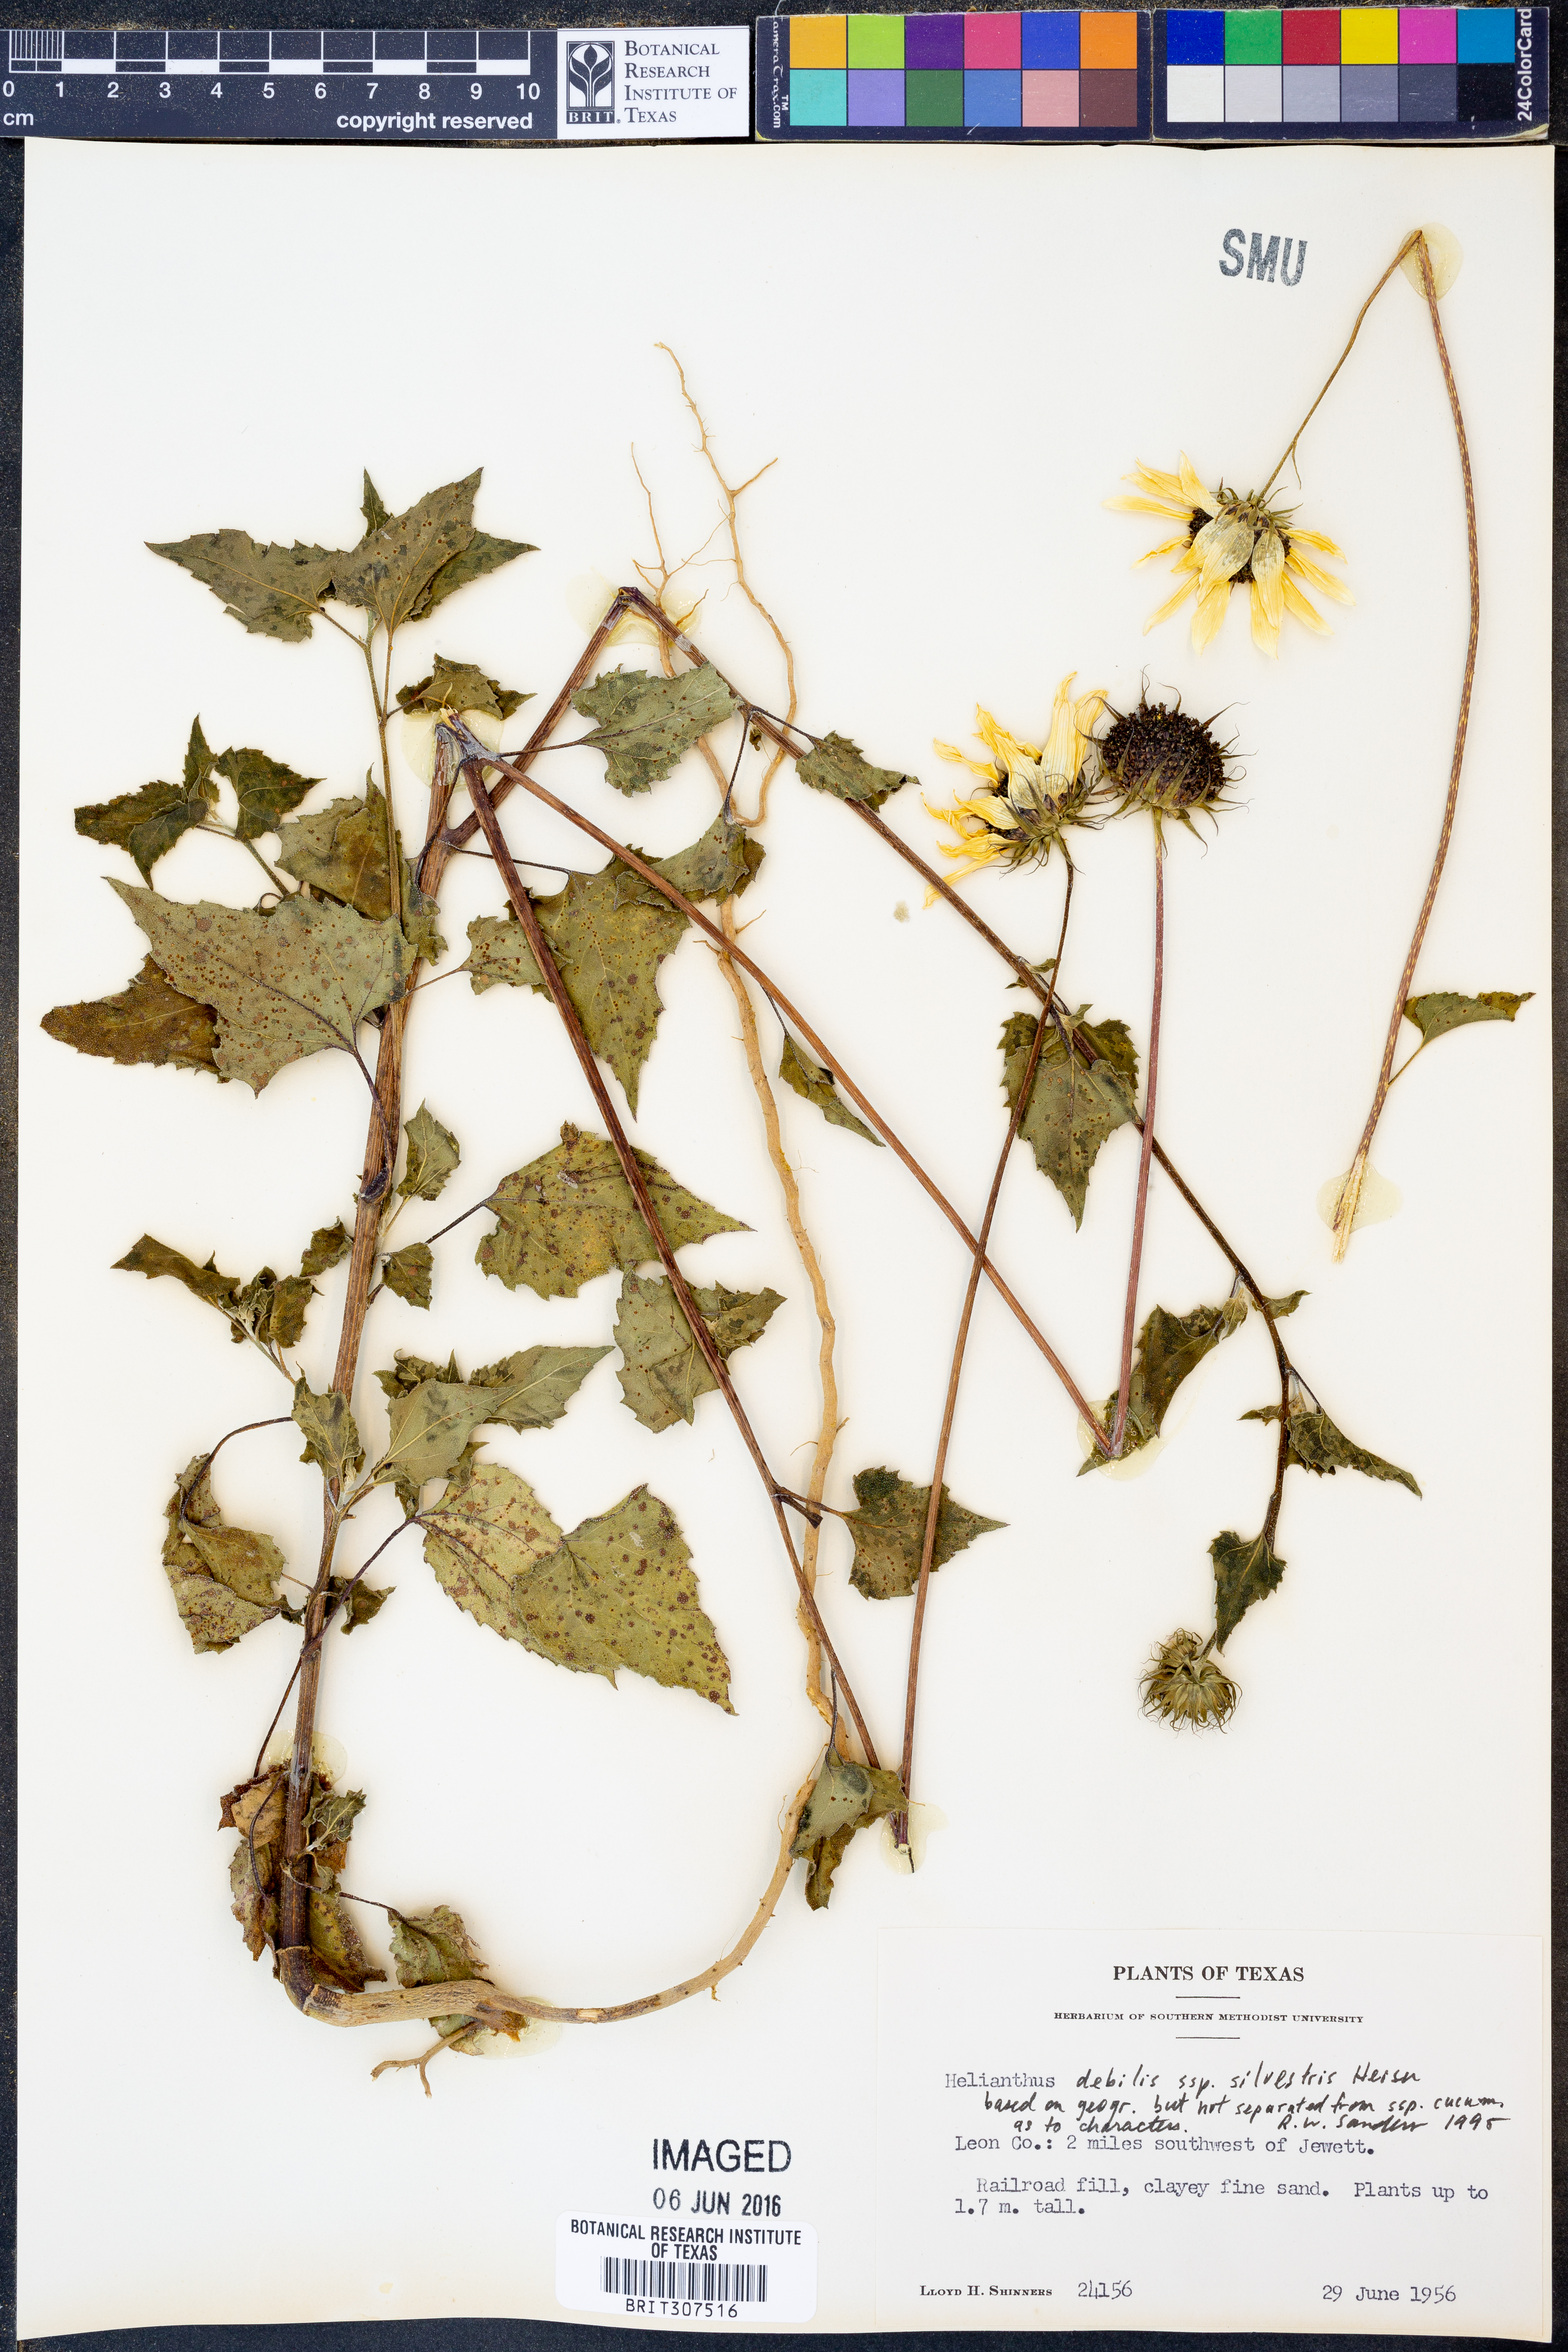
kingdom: Plantae
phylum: Tracheophyta
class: Magnoliopsida
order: Asterales
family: Asteraceae
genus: Helianthus
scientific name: Helianthus debilis
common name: Weak sunflower
